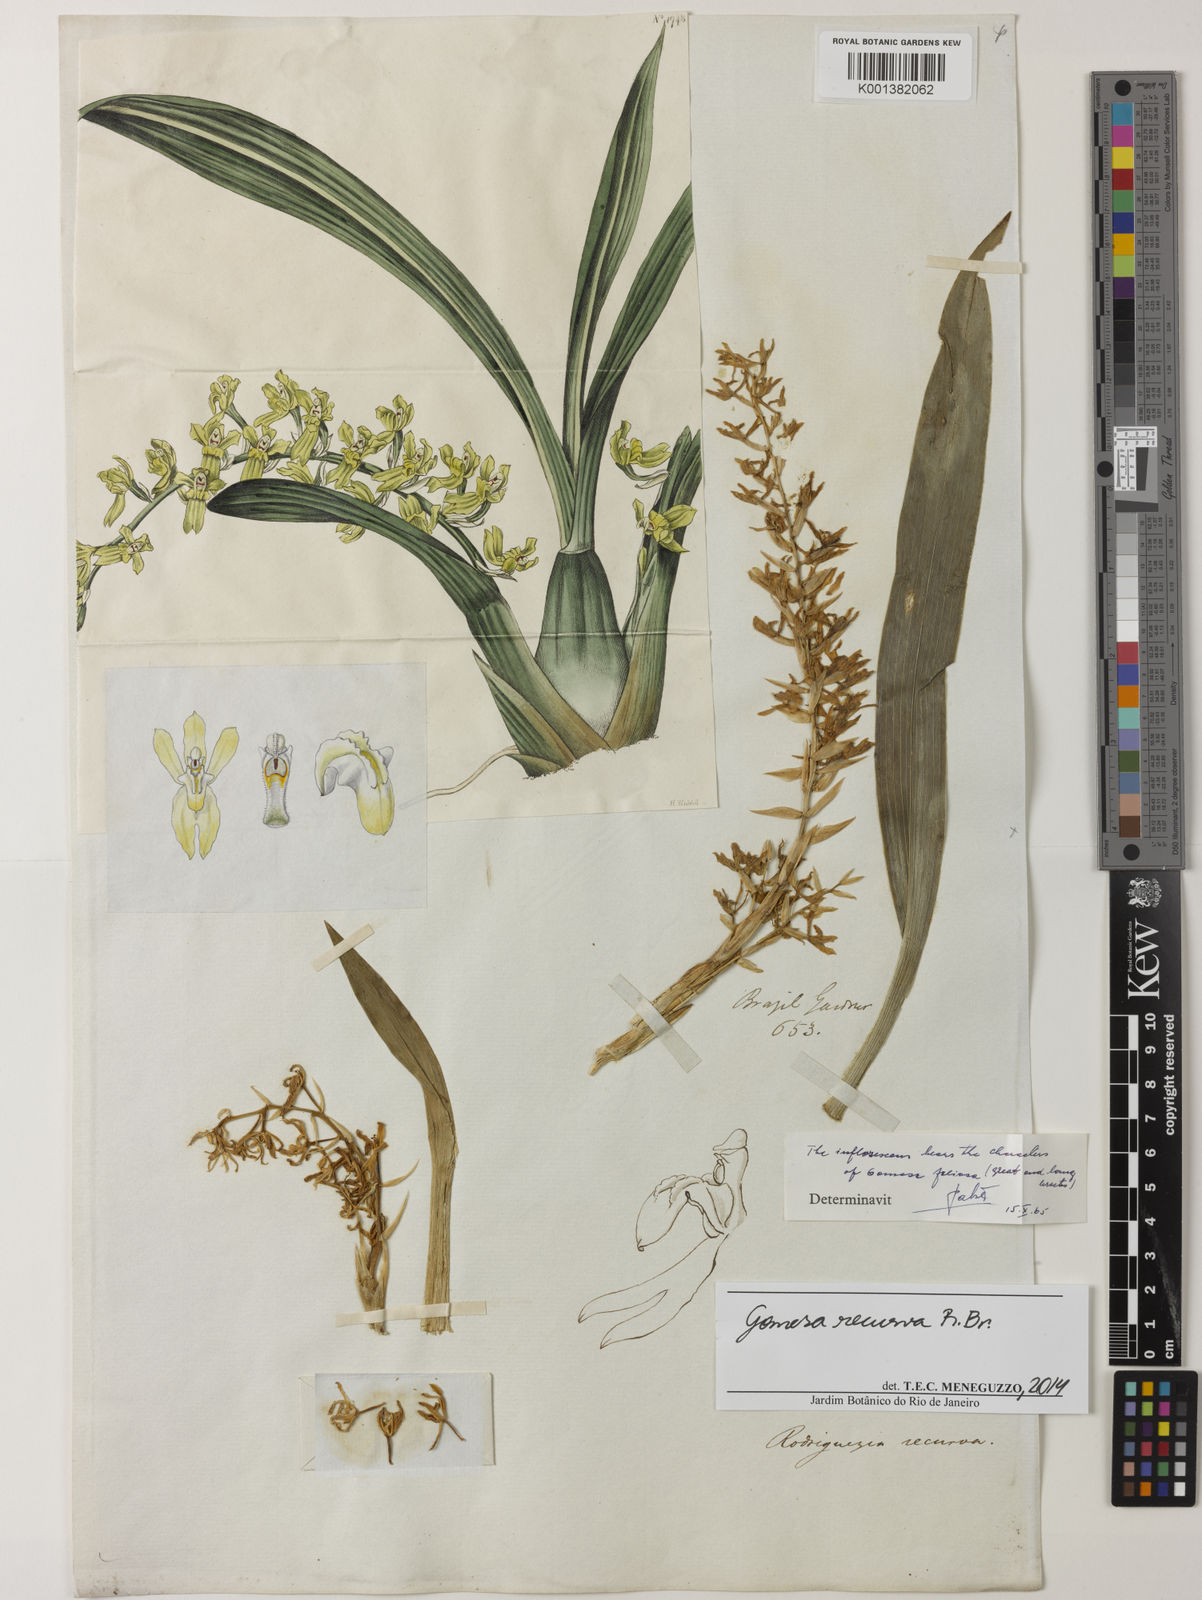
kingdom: Plantae
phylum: Tracheophyta
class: Liliopsida
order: Asparagales
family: Orchidaceae
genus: Gomesa
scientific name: Gomesa recurva
